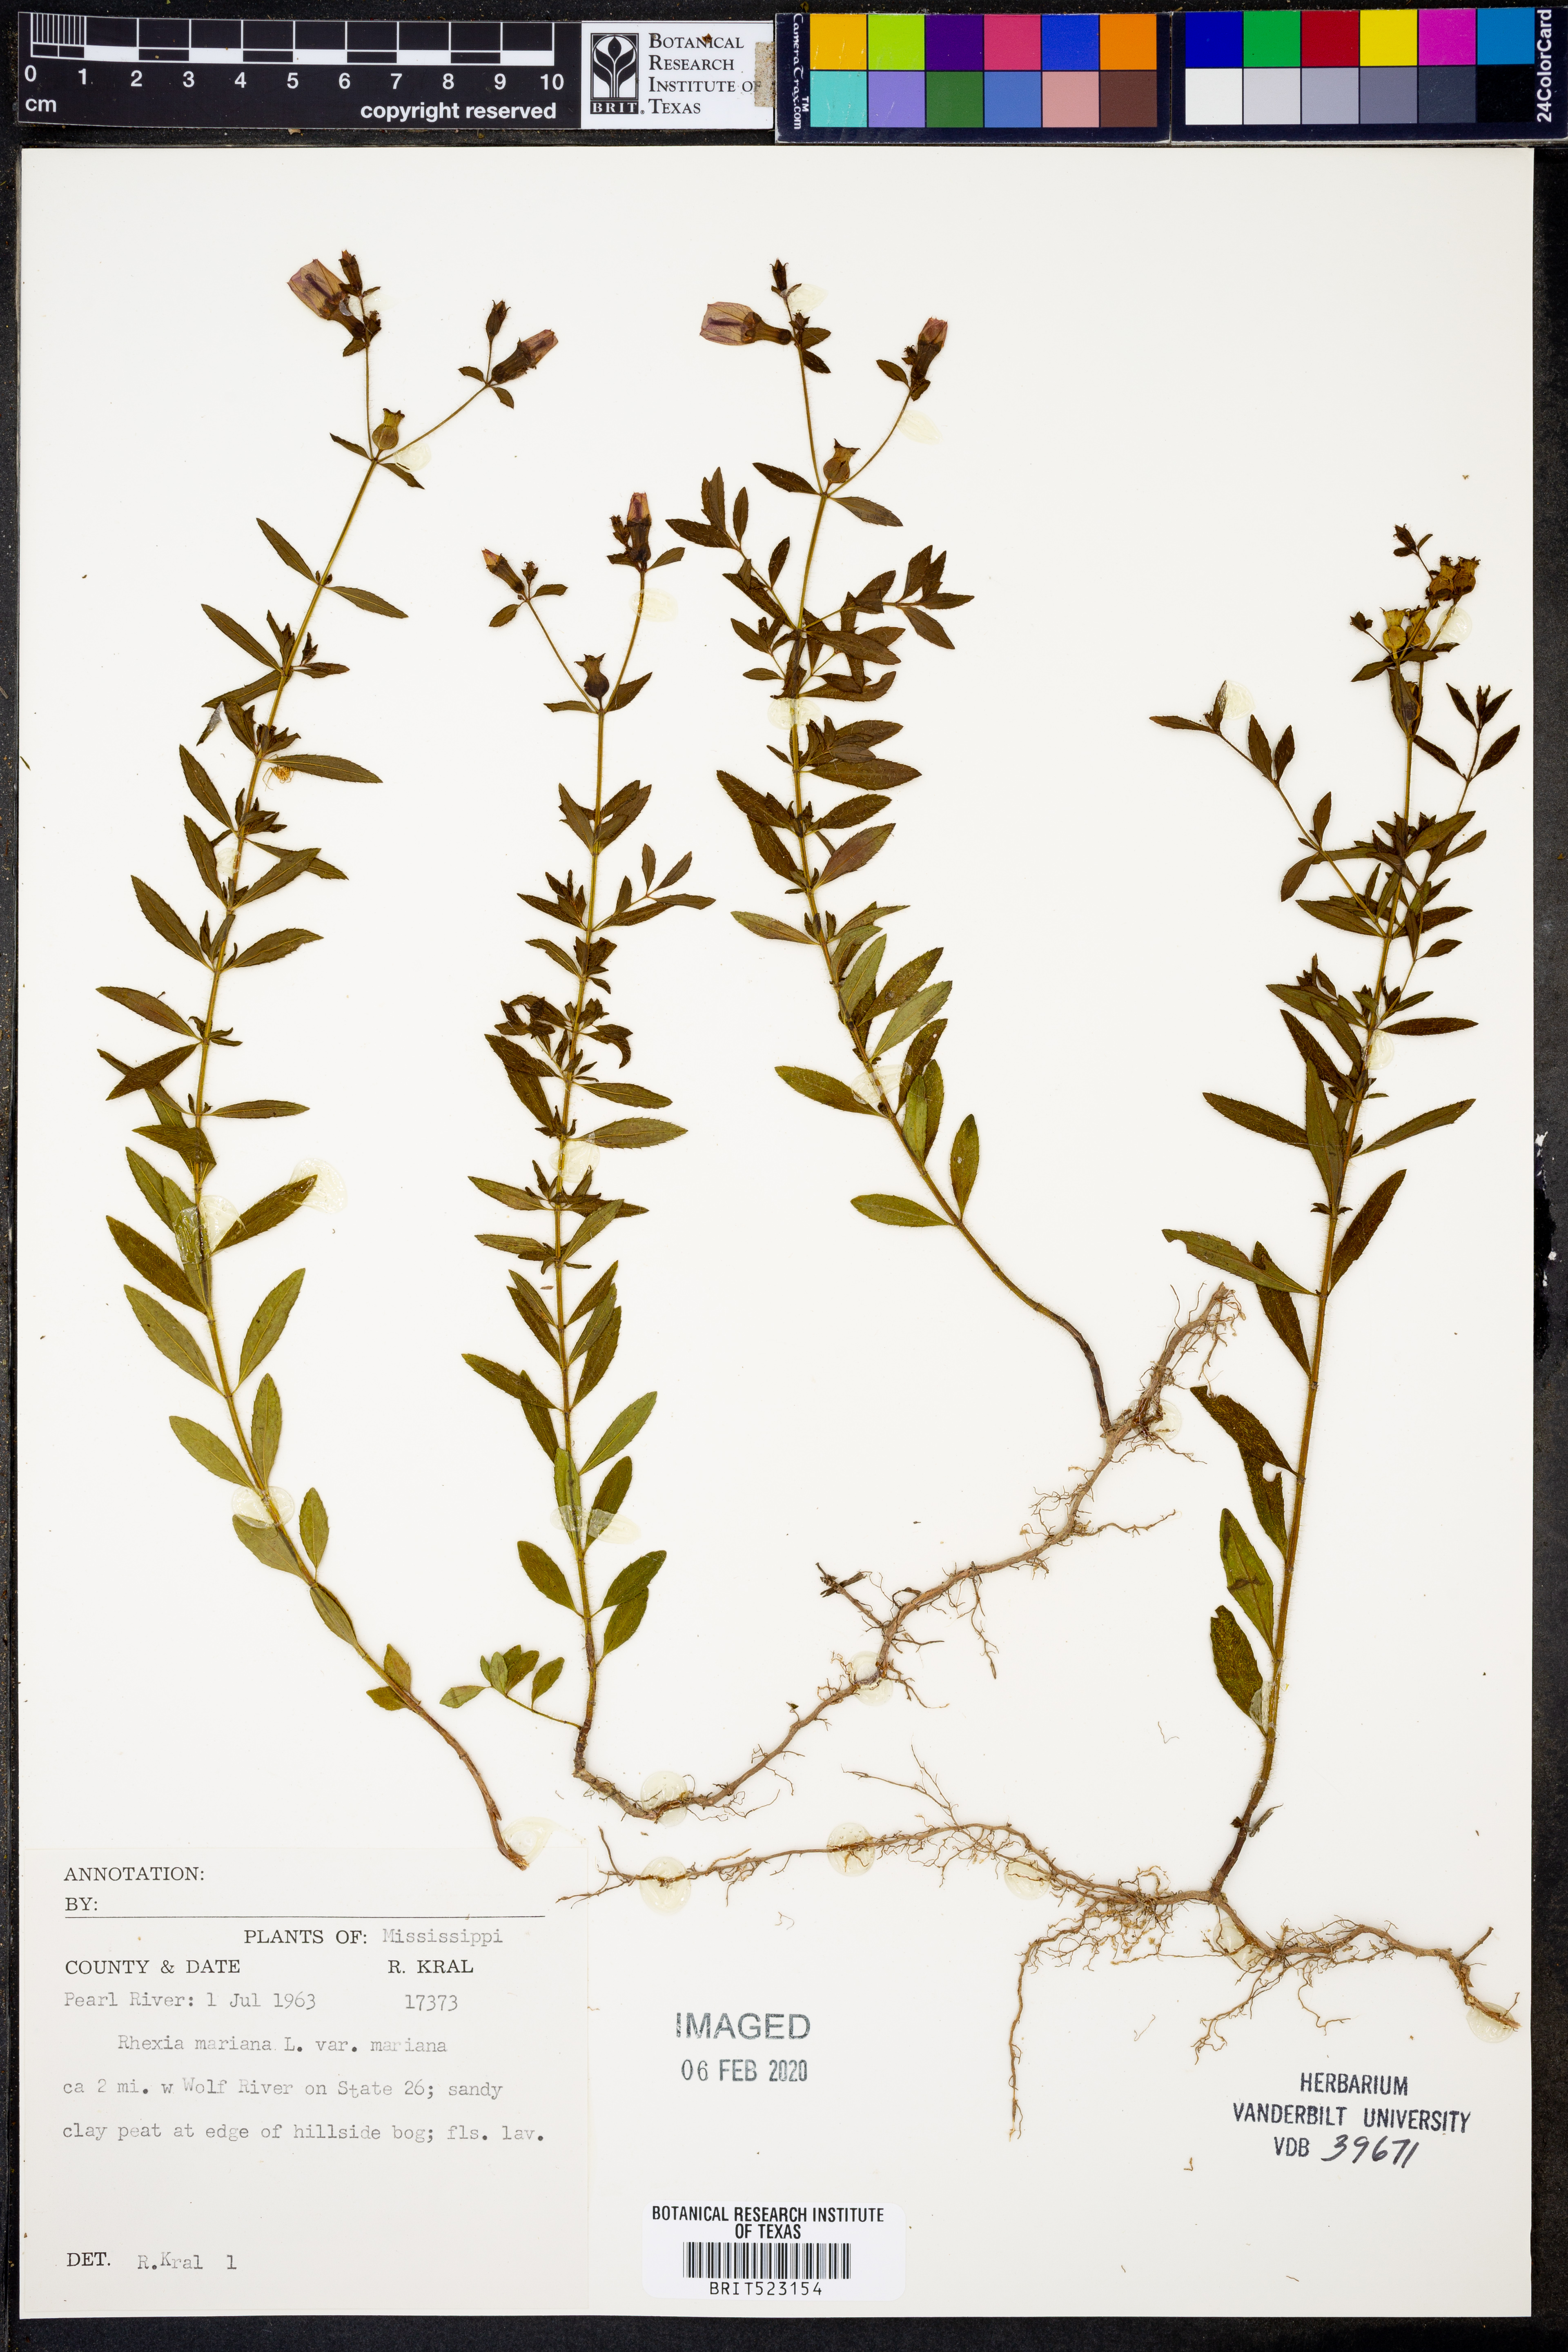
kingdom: Plantae
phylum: Tracheophyta
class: Magnoliopsida
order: Myrtales
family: Melastomataceae
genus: Rhexia
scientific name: Rhexia mariana
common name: Dull meadow-pitcher
